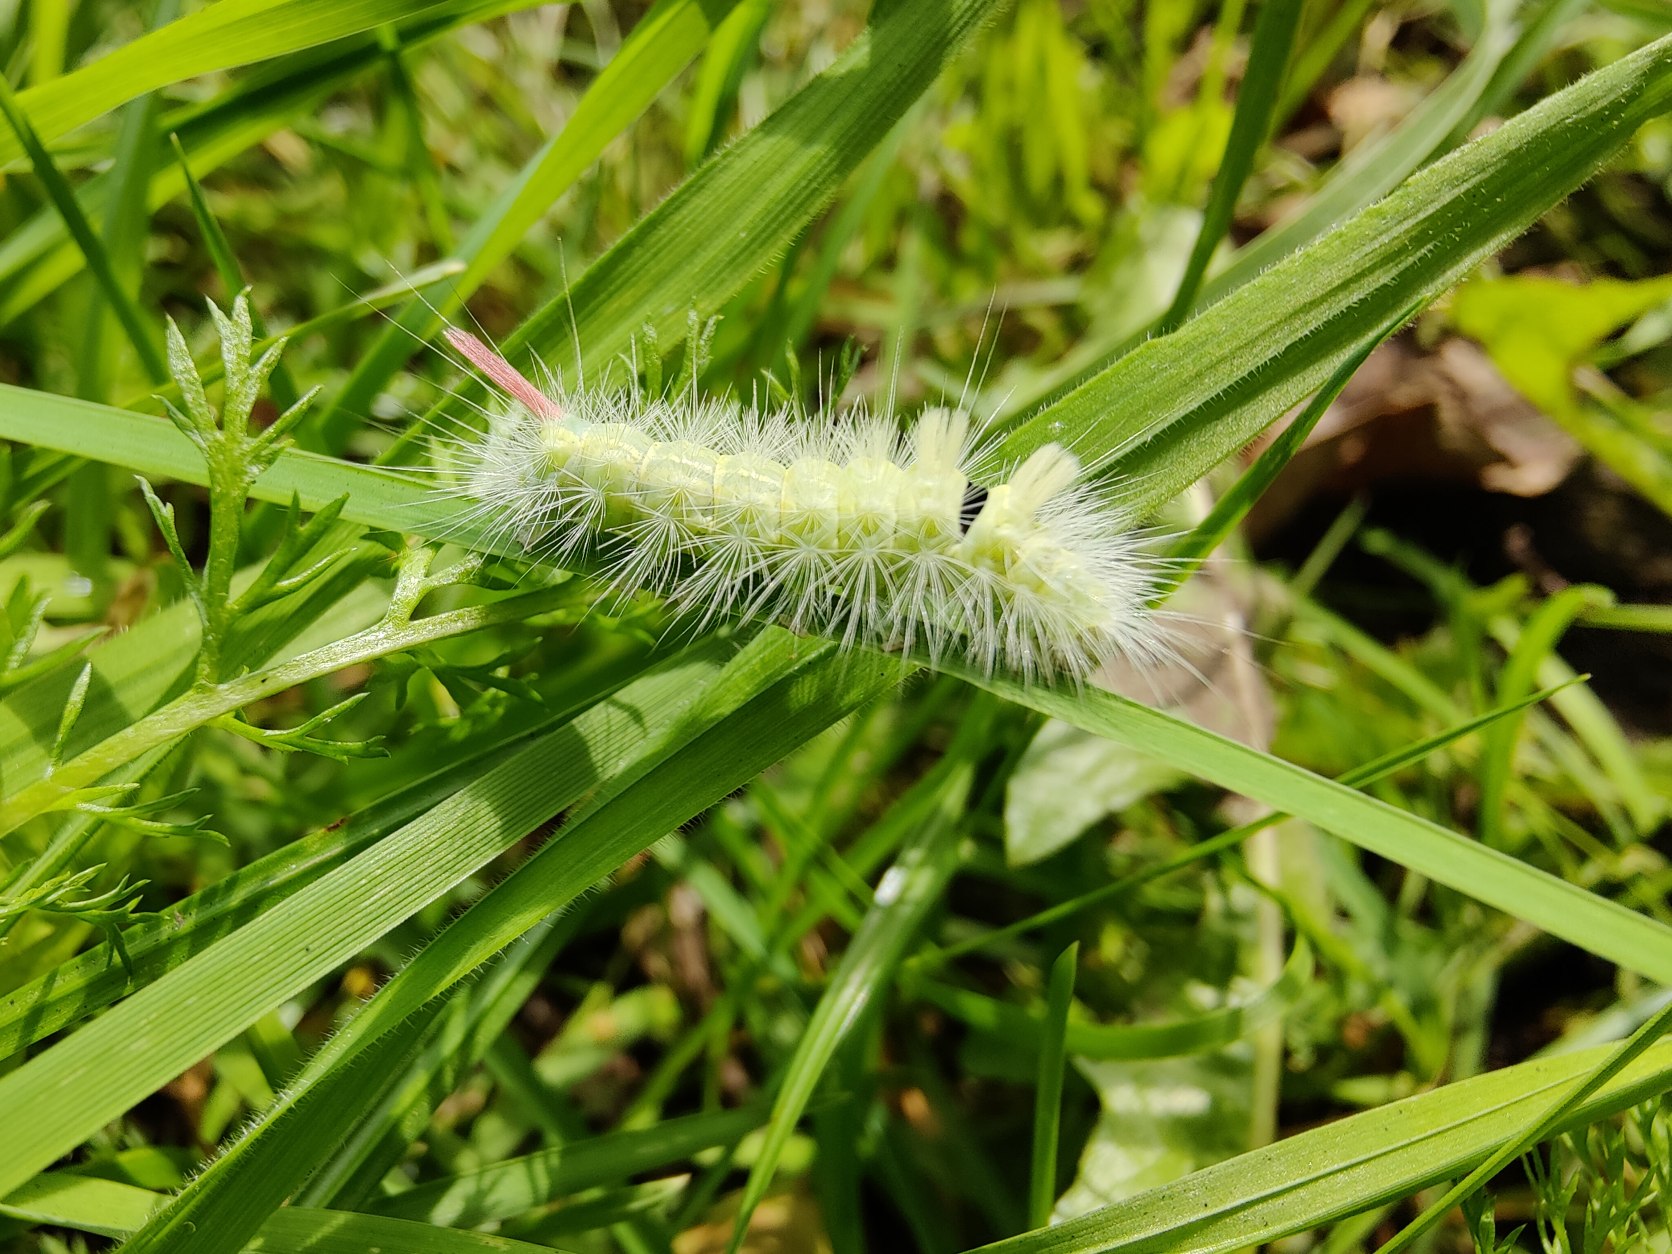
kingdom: Animalia
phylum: Arthropoda
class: Insecta
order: Lepidoptera
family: Erebidae
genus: Calliteara
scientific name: Calliteara pudibunda
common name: Bøgenonne
